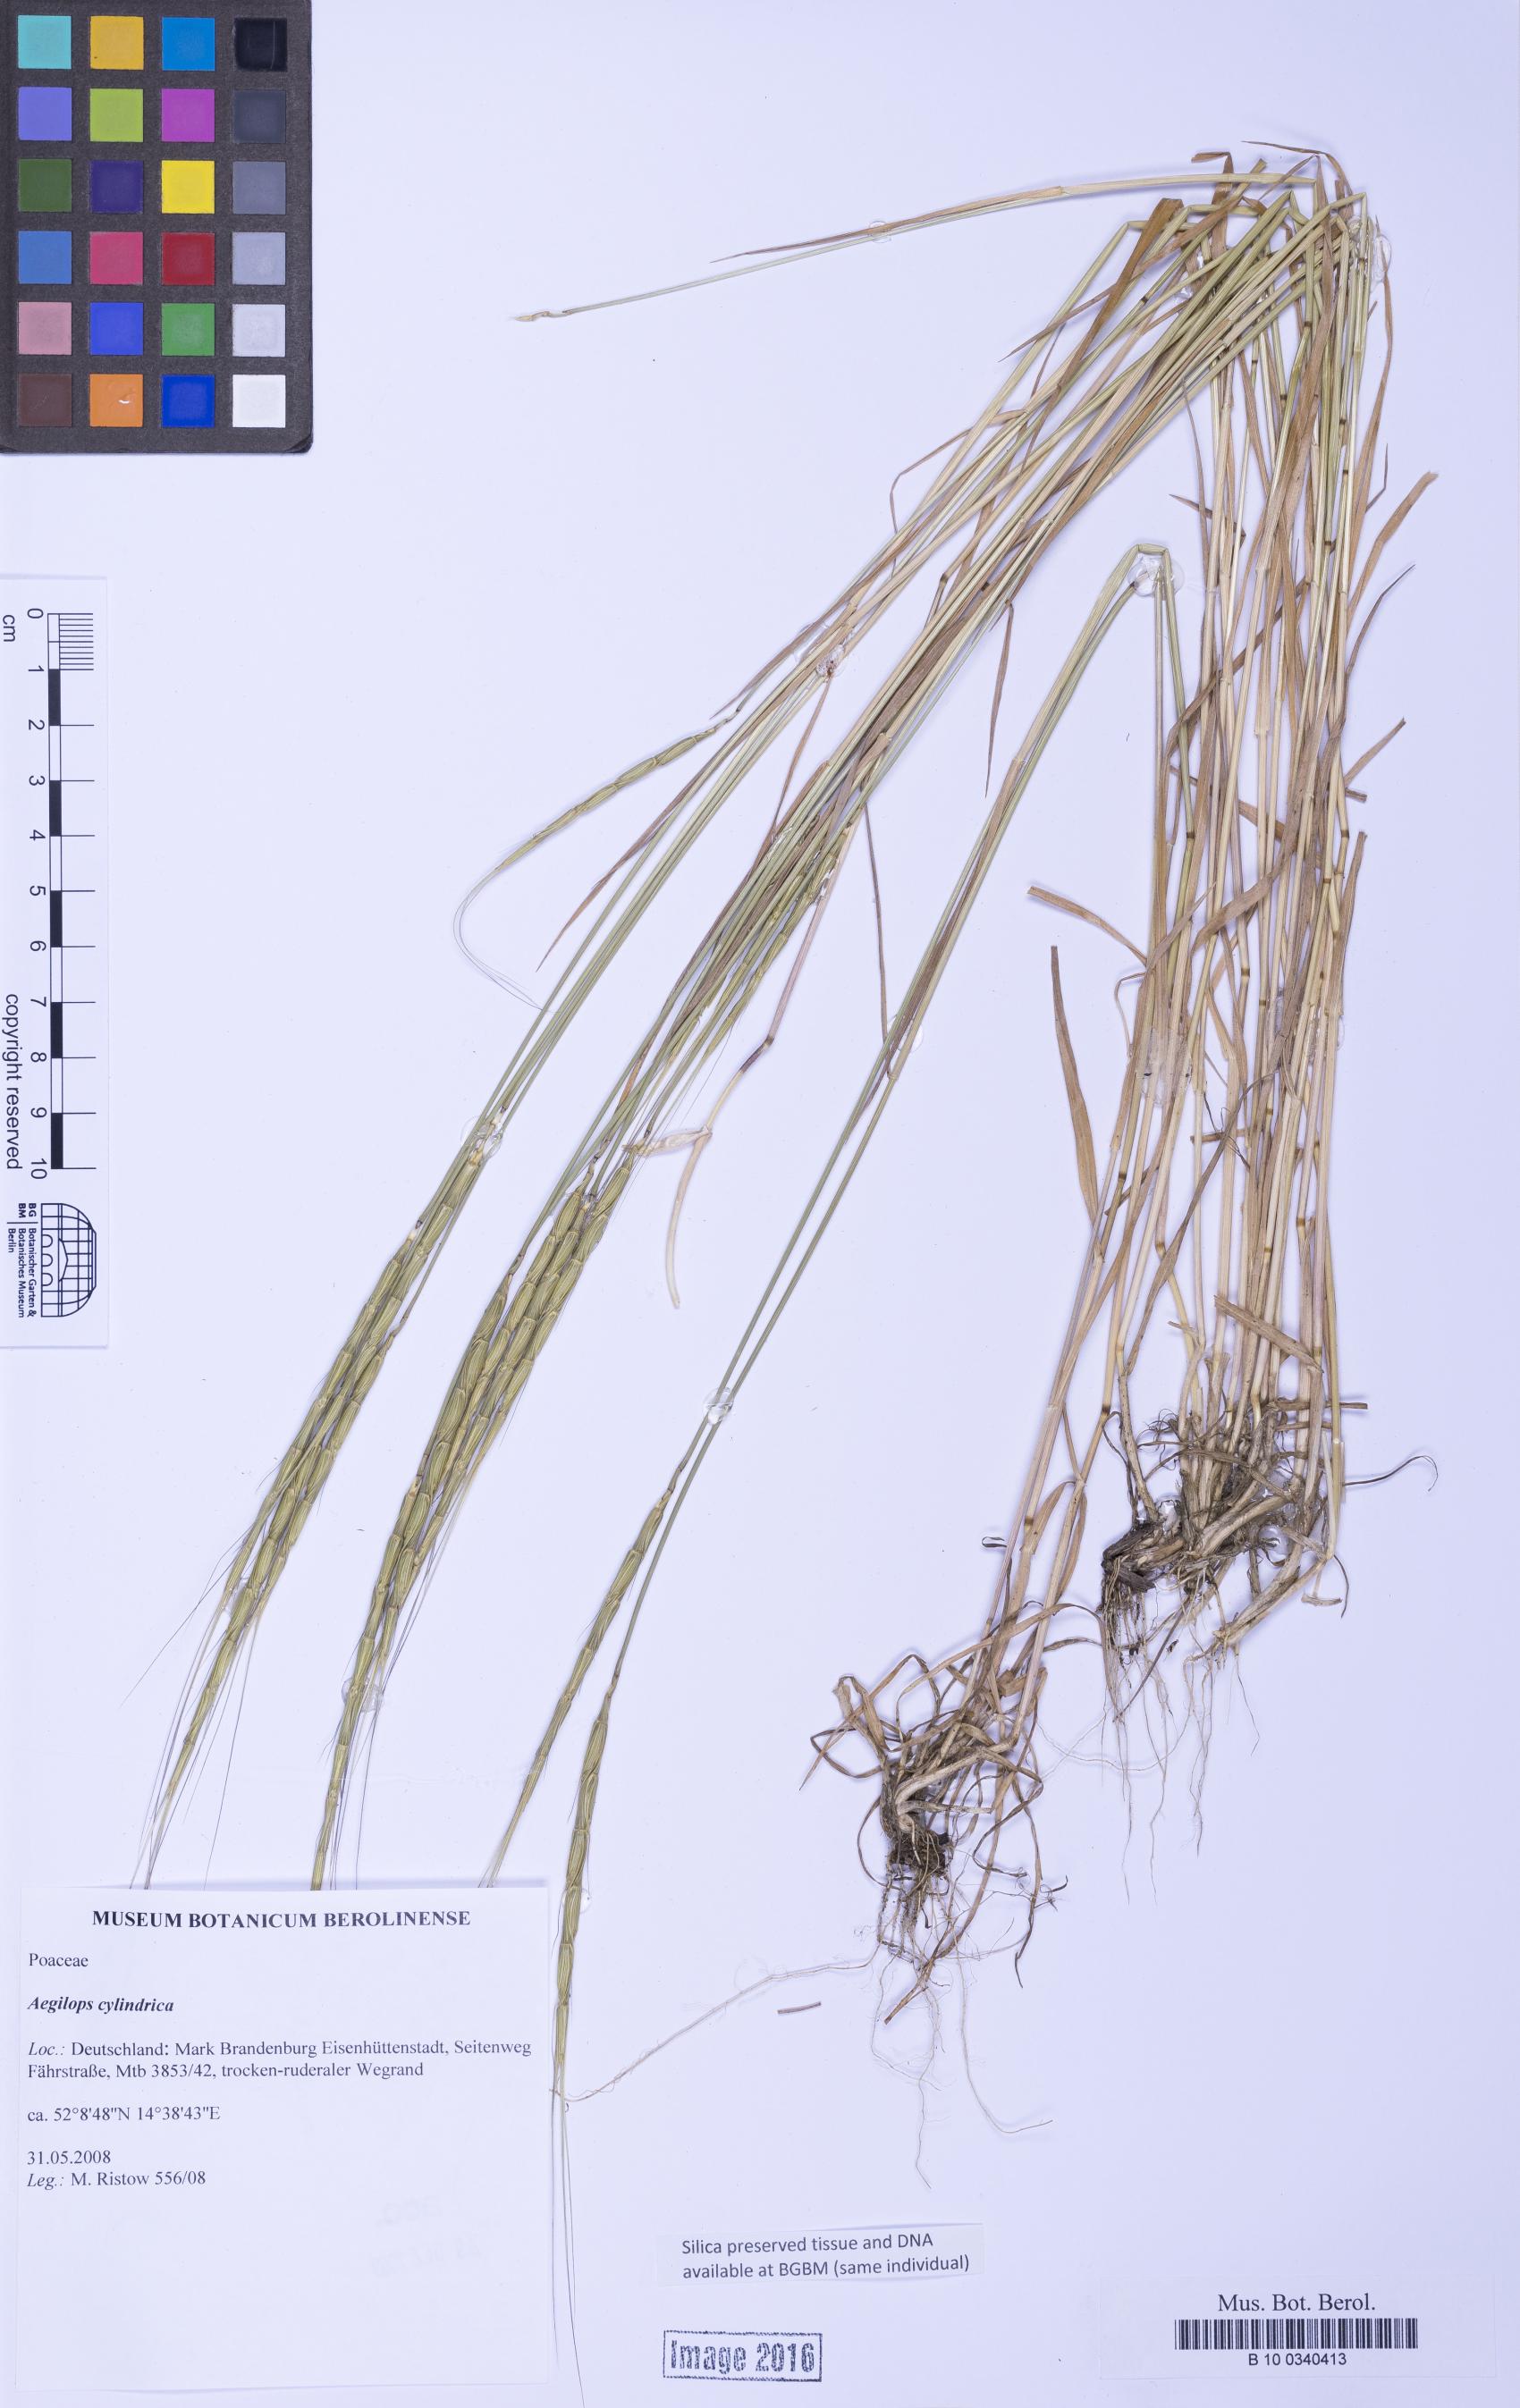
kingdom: Plantae
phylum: Tracheophyta
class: Liliopsida
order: Poales
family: Poaceae
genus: Aegilops
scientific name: Aegilops cylindrica
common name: Jointed goatgrass
